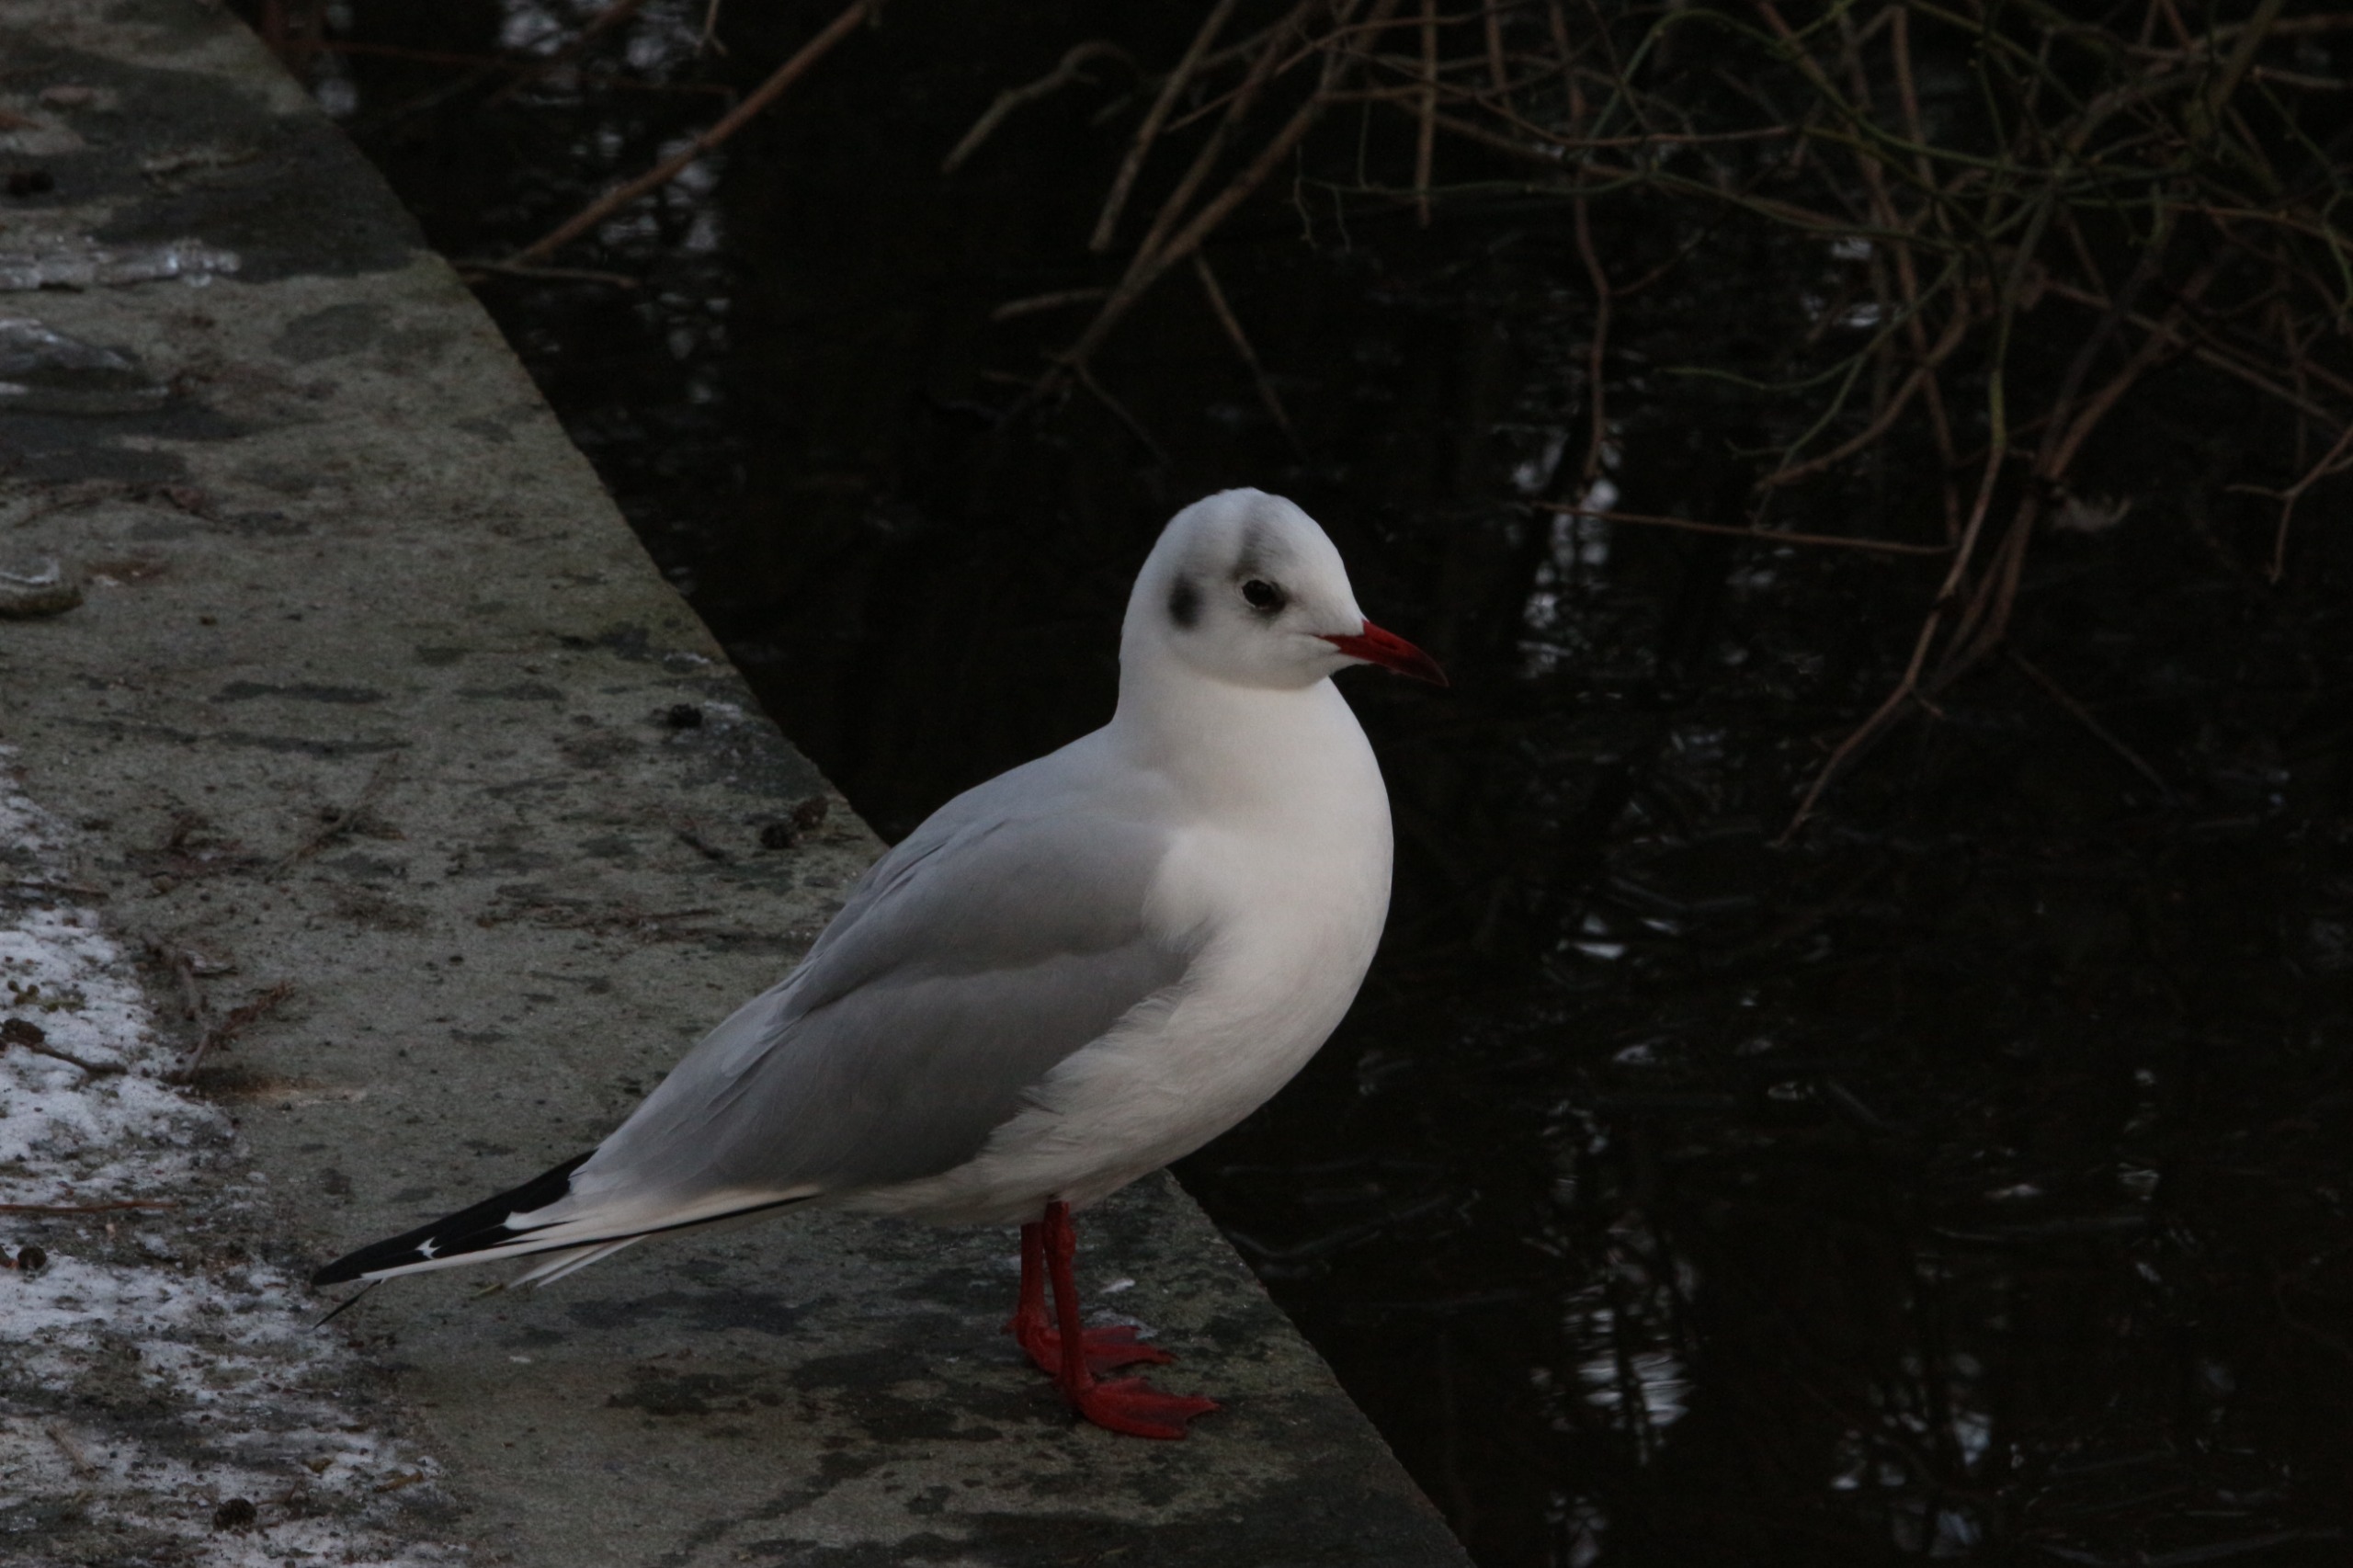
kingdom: Animalia
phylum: Chordata
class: Aves
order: Charadriiformes
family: Laridae
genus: Chroicocephalus
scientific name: Chroicocephalus ridibundus
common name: Hættemåge
